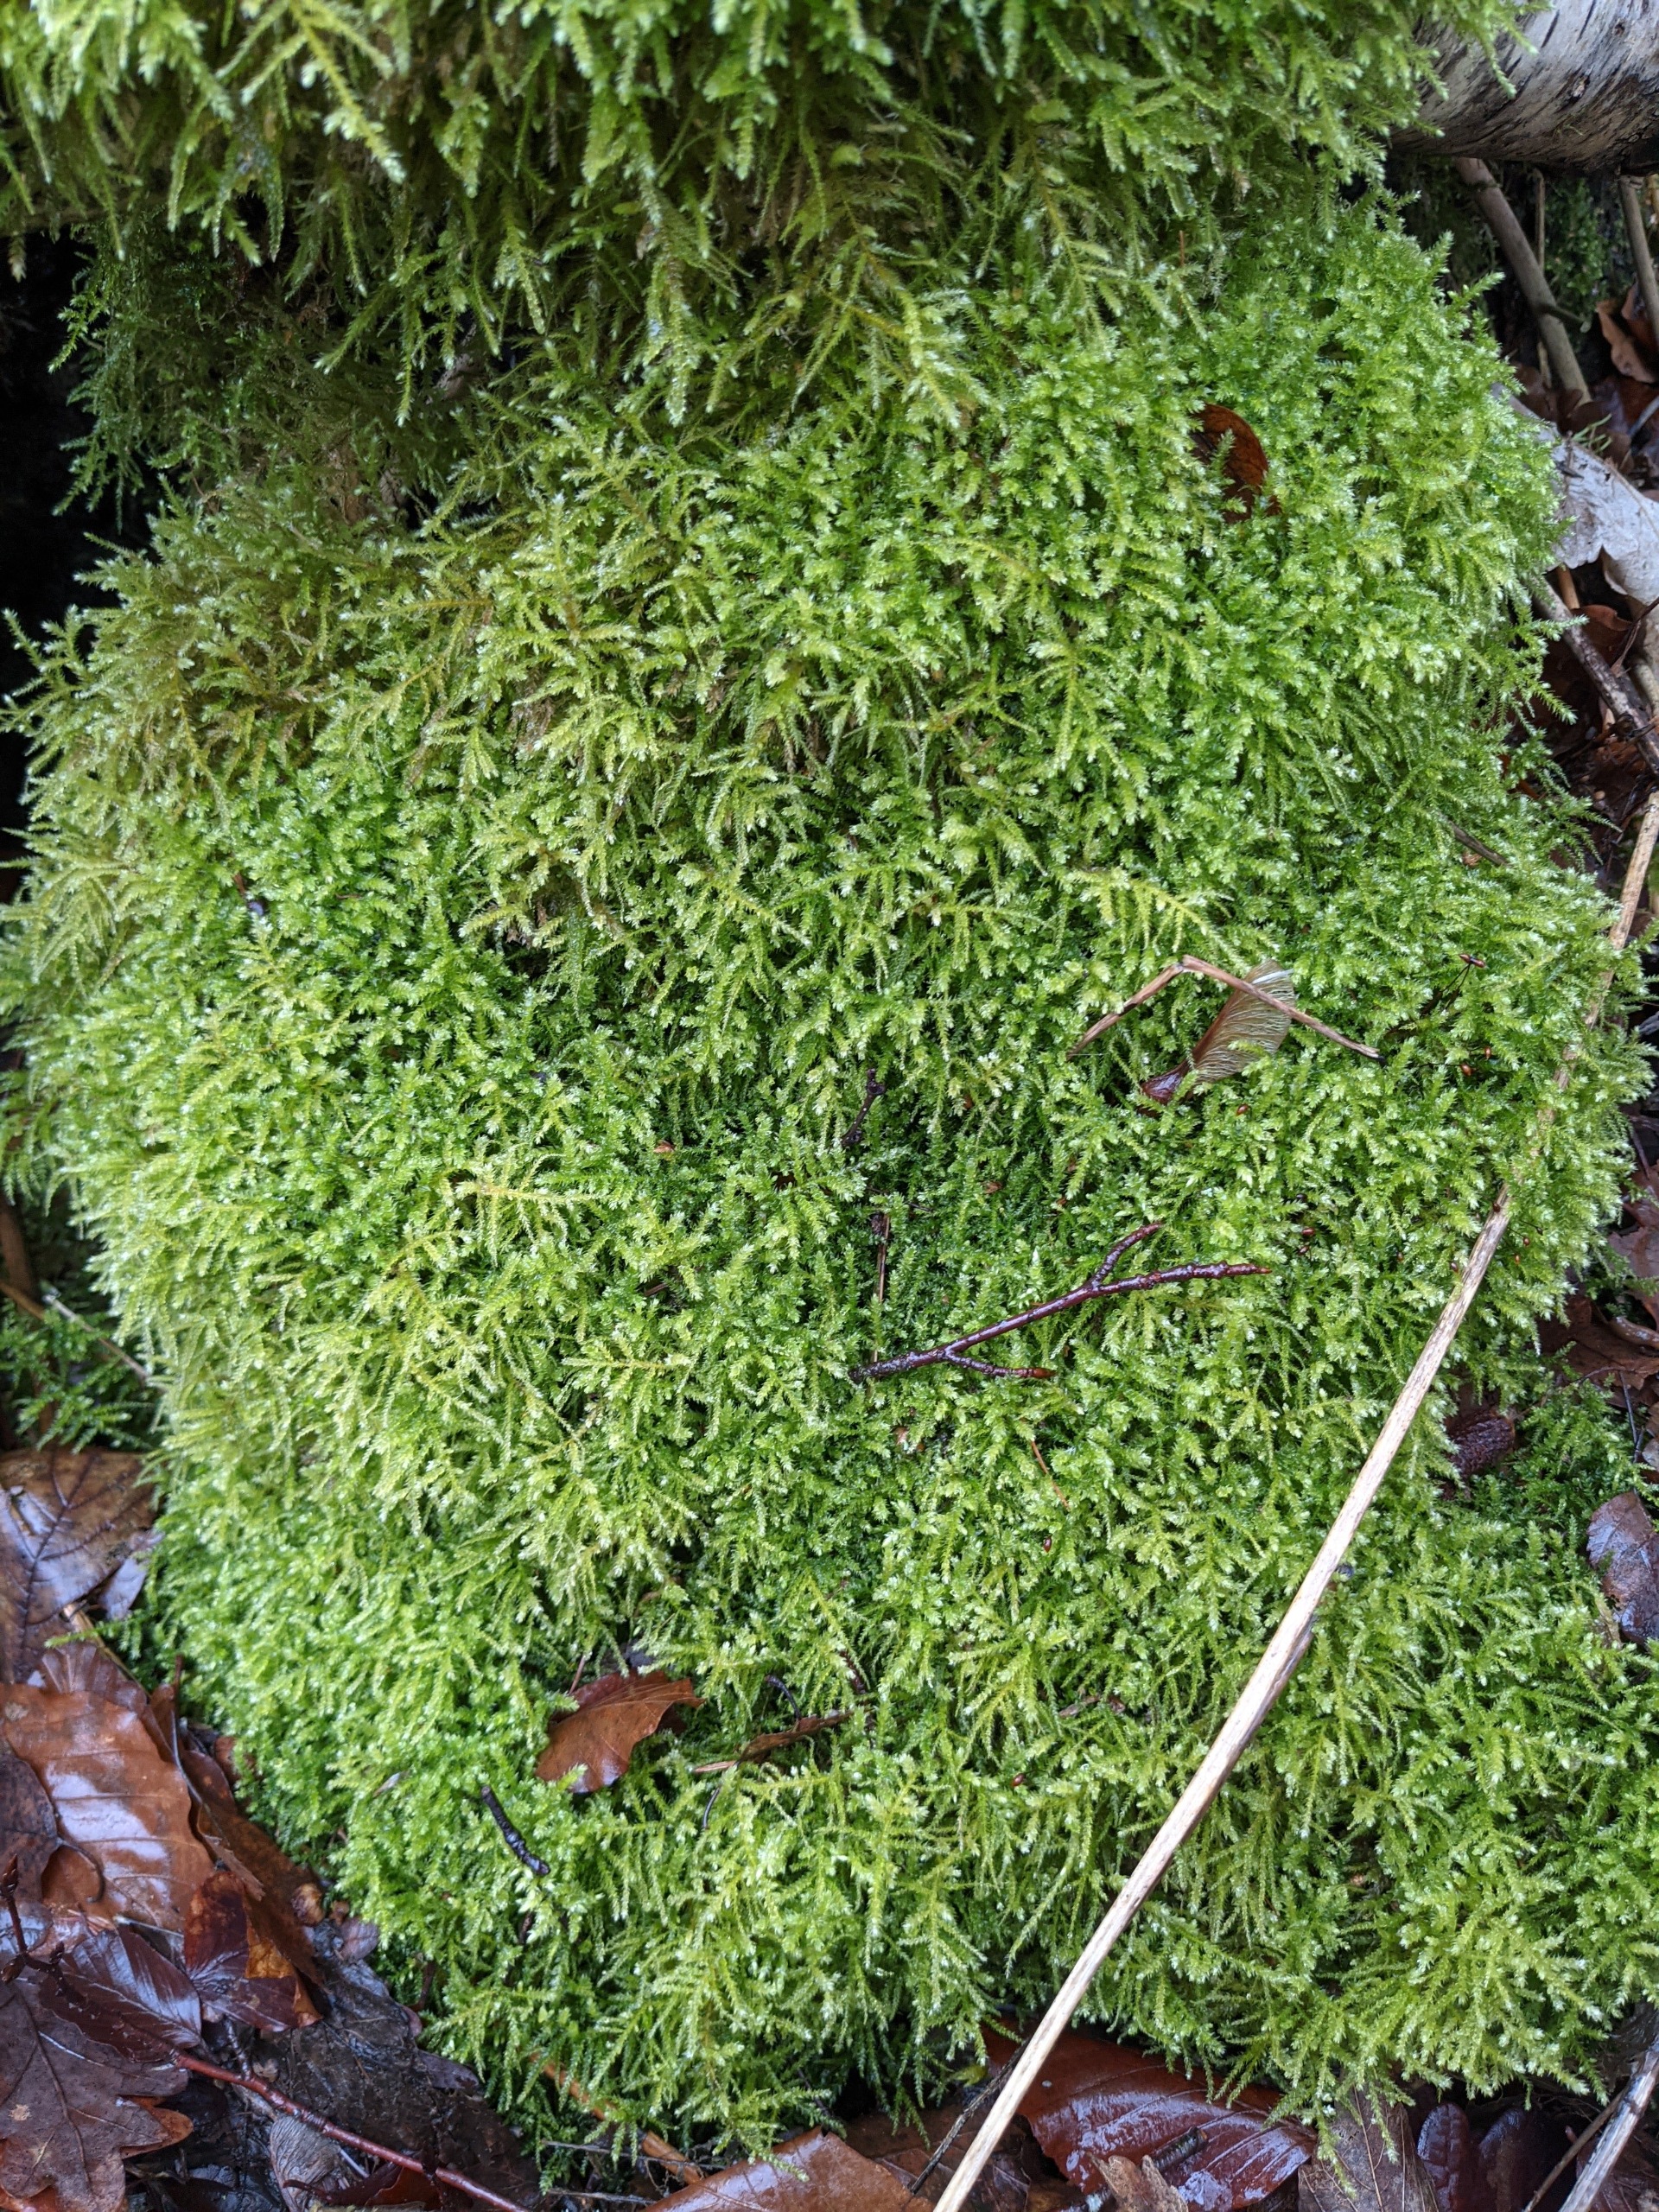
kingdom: Plantae
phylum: Bryophyta
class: Bryopsida
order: Hypnales
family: Brachytheciaceae
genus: Eurhynchium
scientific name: Eurhynchium striatum
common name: Stribet næbmos
